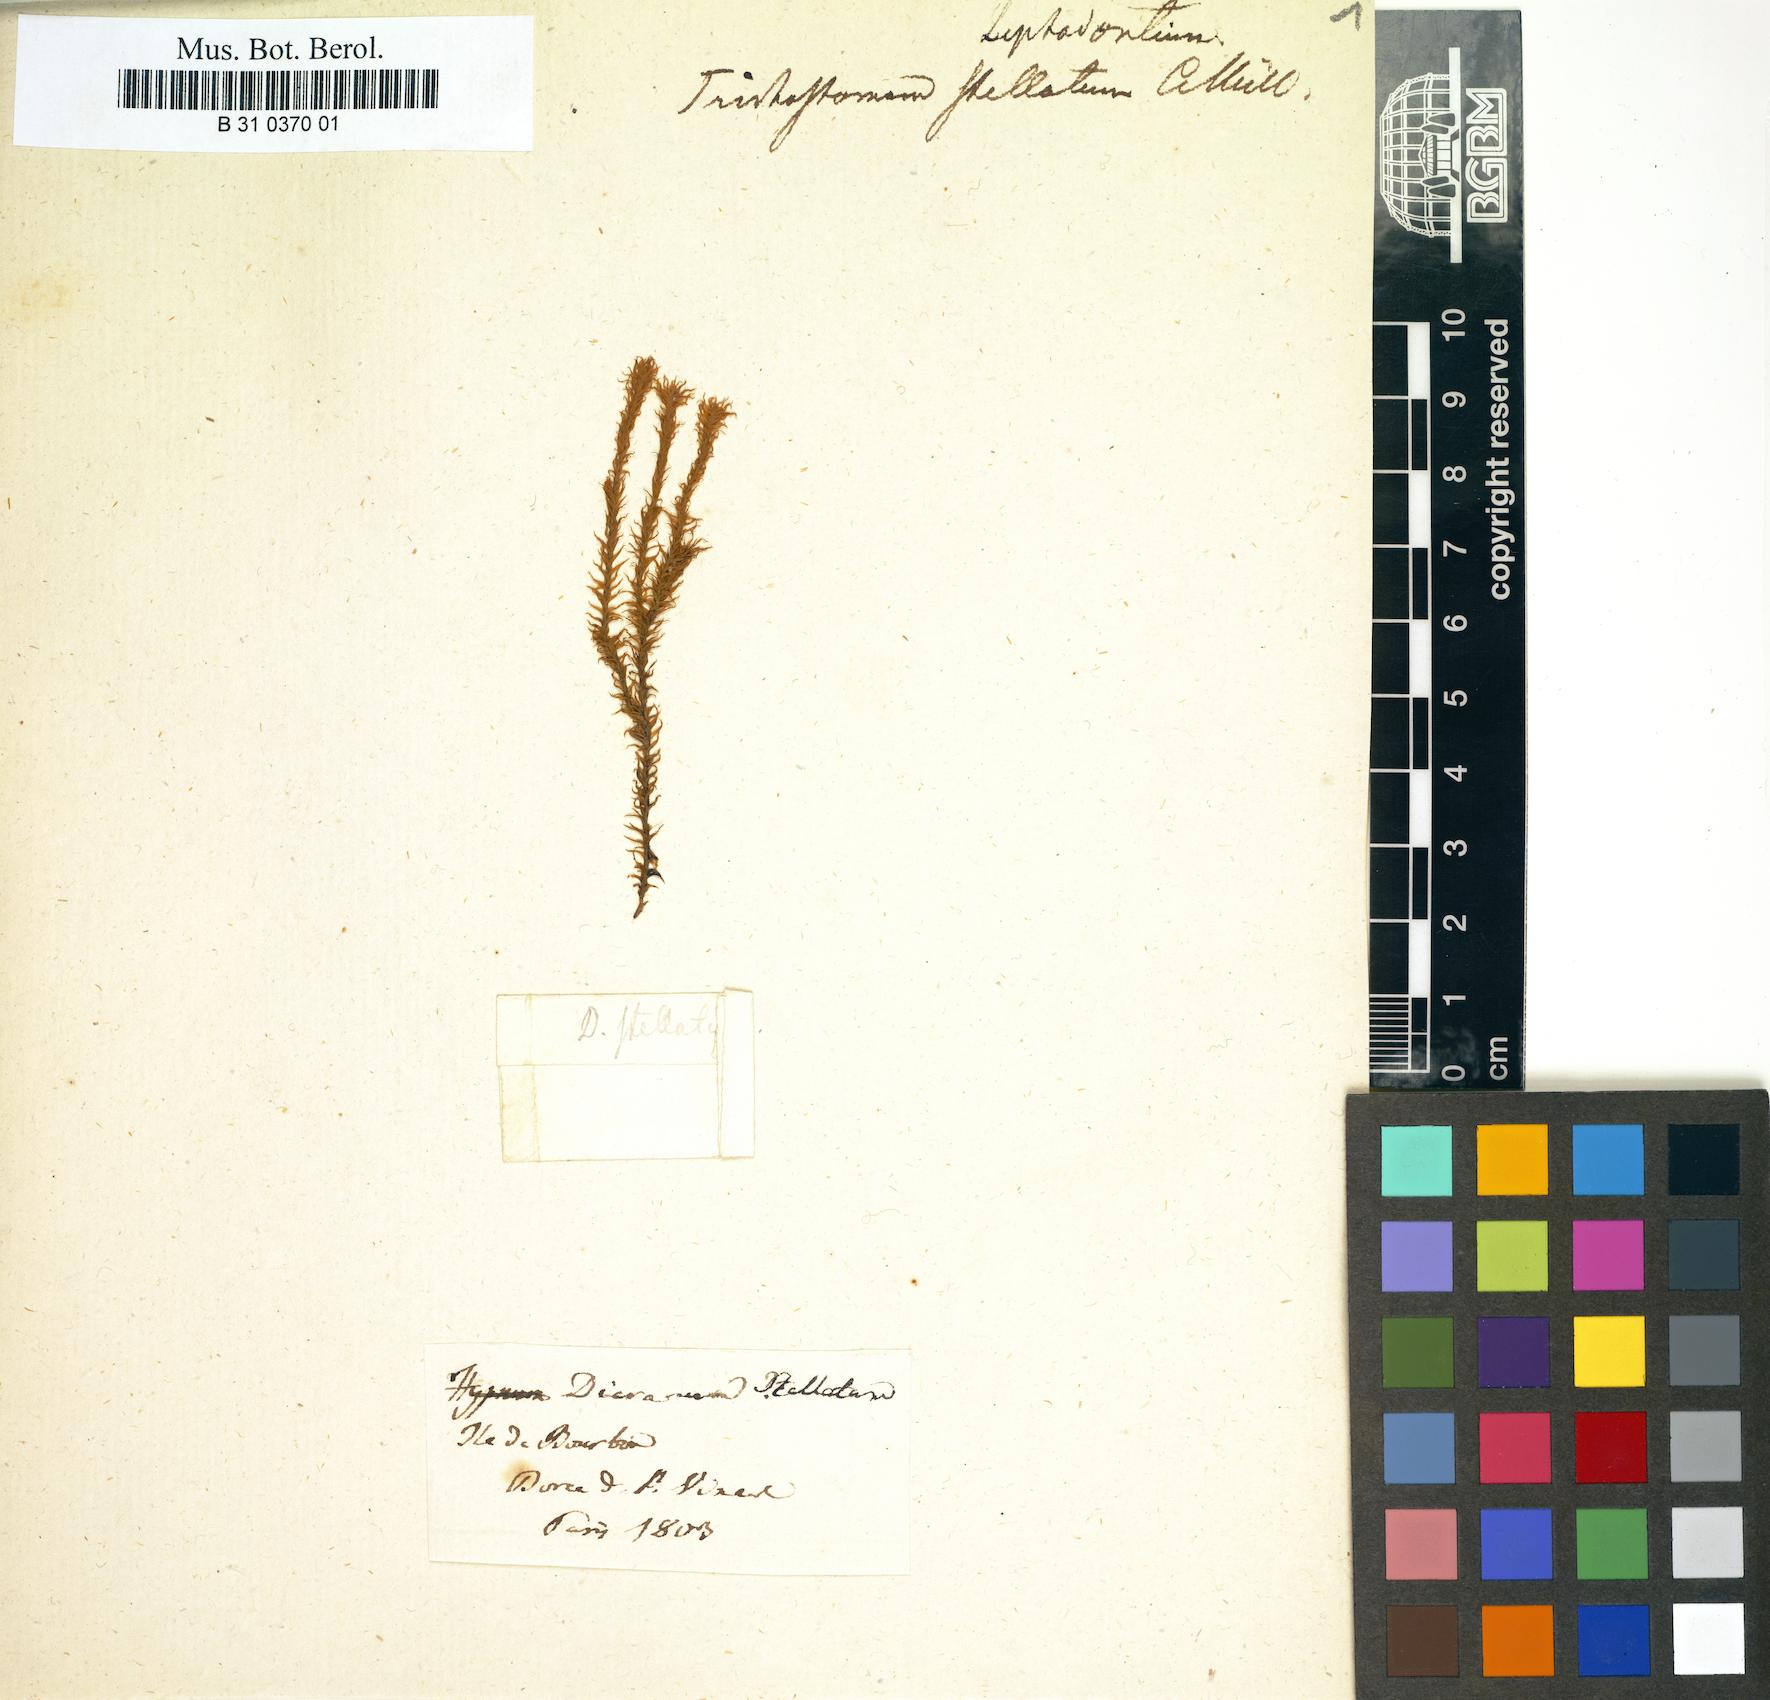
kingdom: Plantae
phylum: Bryophyta
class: Bryopsida
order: Pottiales
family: Pottiaceae
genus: Leptodontium
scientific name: Leptodontium longicaule
